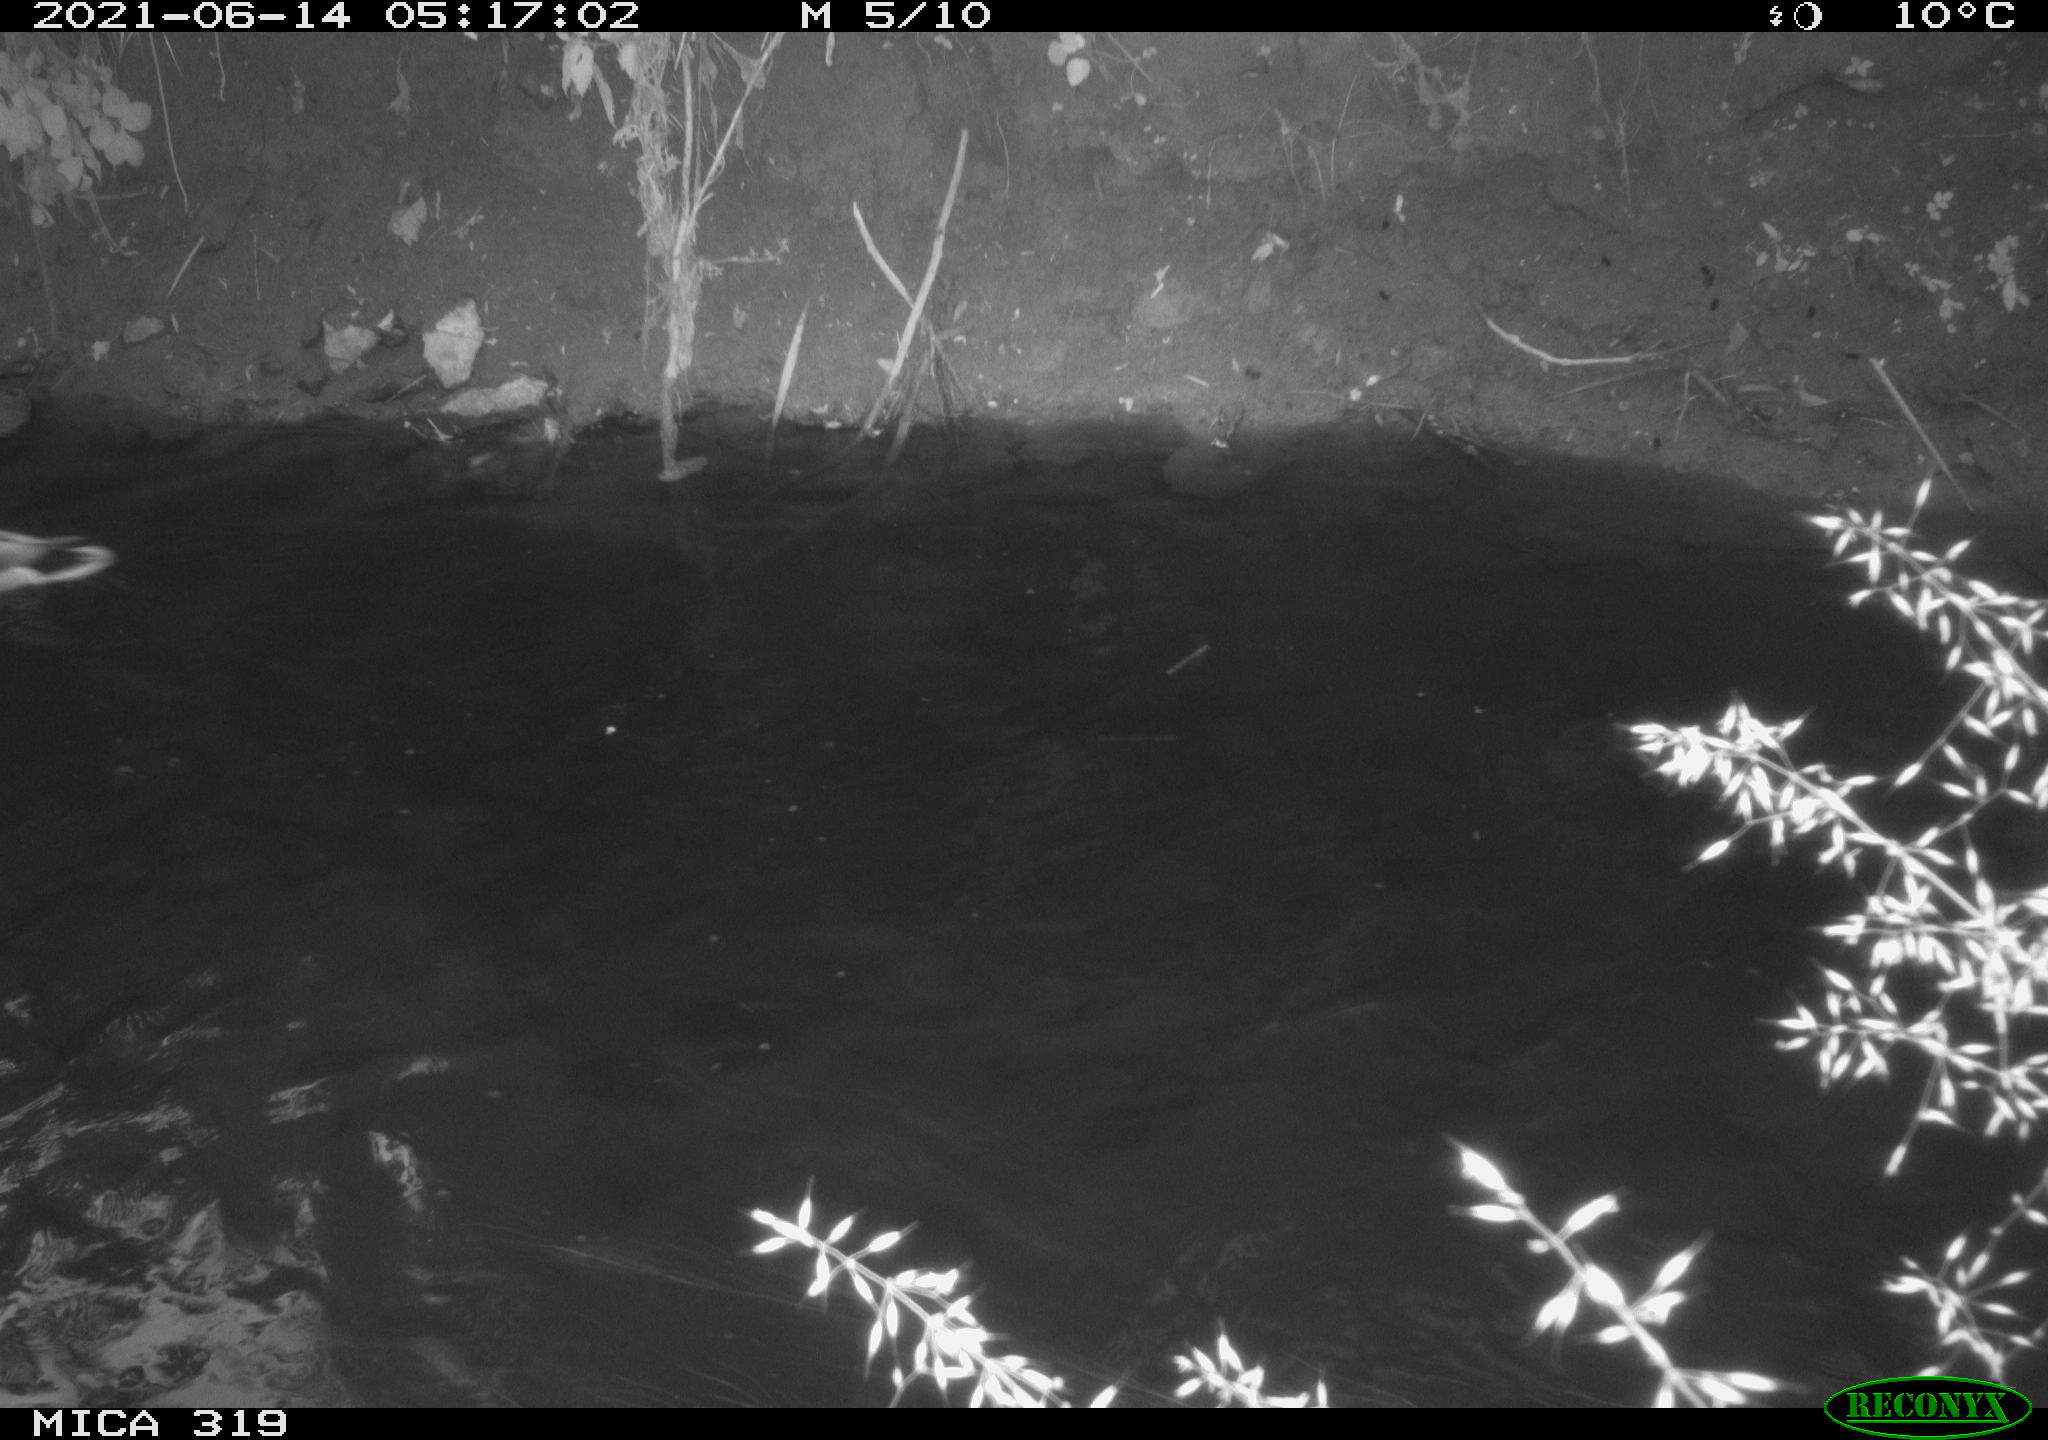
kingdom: Animalia
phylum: Chordata
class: Aves
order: Anseriformes
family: Anatidae
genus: Anas
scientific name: Anas platyrhynchos
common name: Mallard
